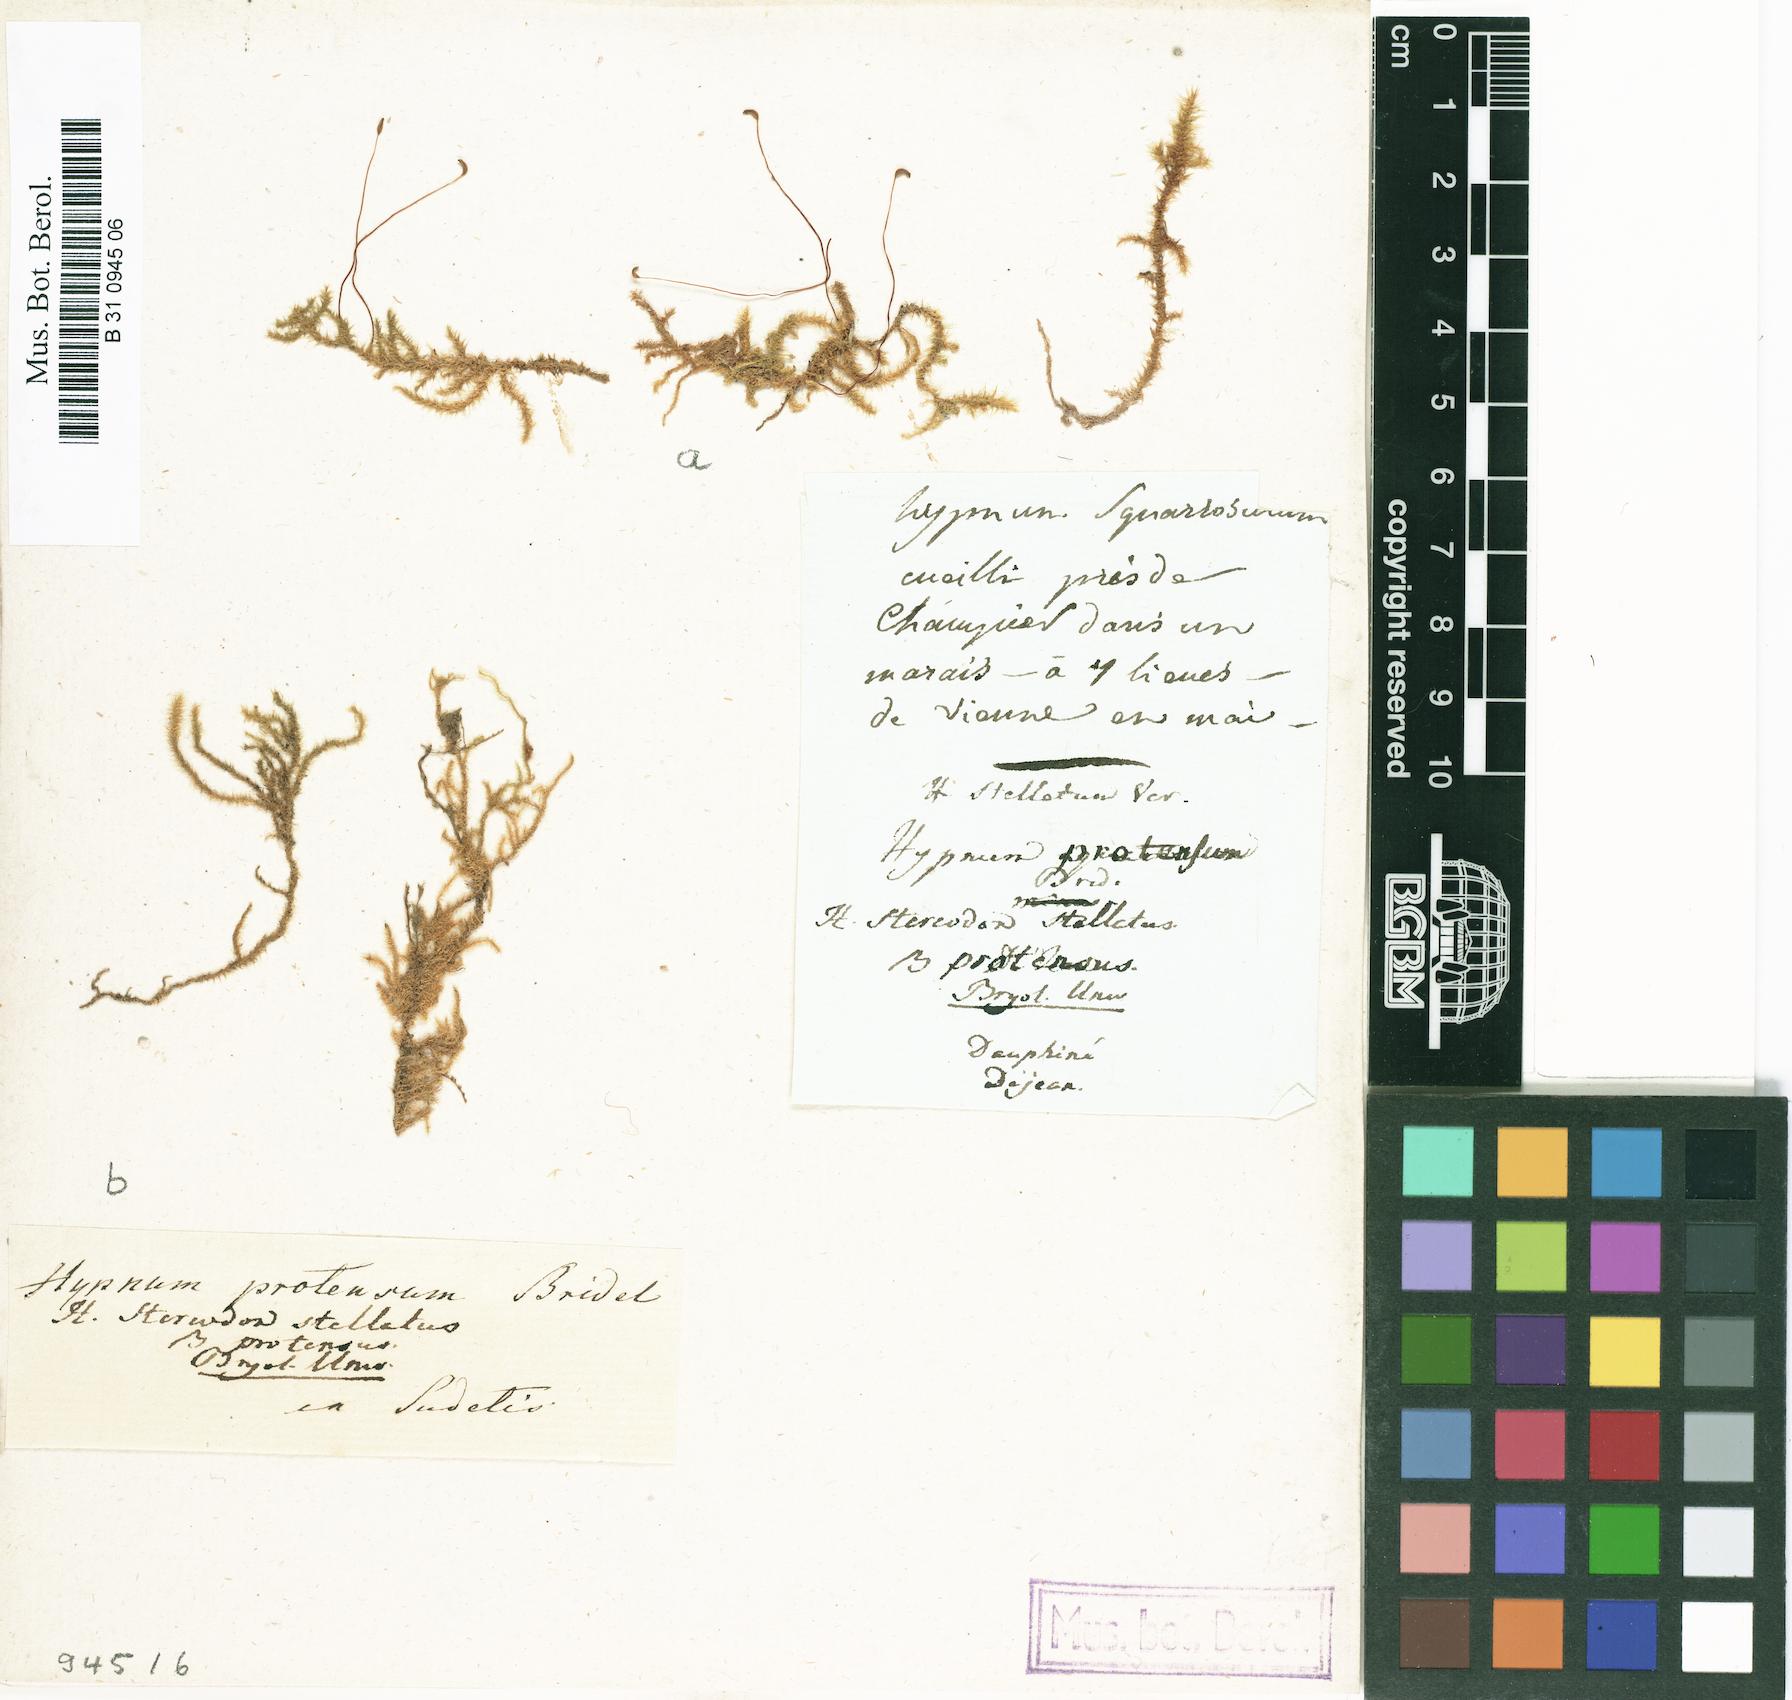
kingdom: Plantae
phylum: Bryophyta
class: Bryopsida
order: Hypnales
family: Amblystegiaceae
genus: Campylium
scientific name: Campylium stellatum
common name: Yellow starry fen moss
